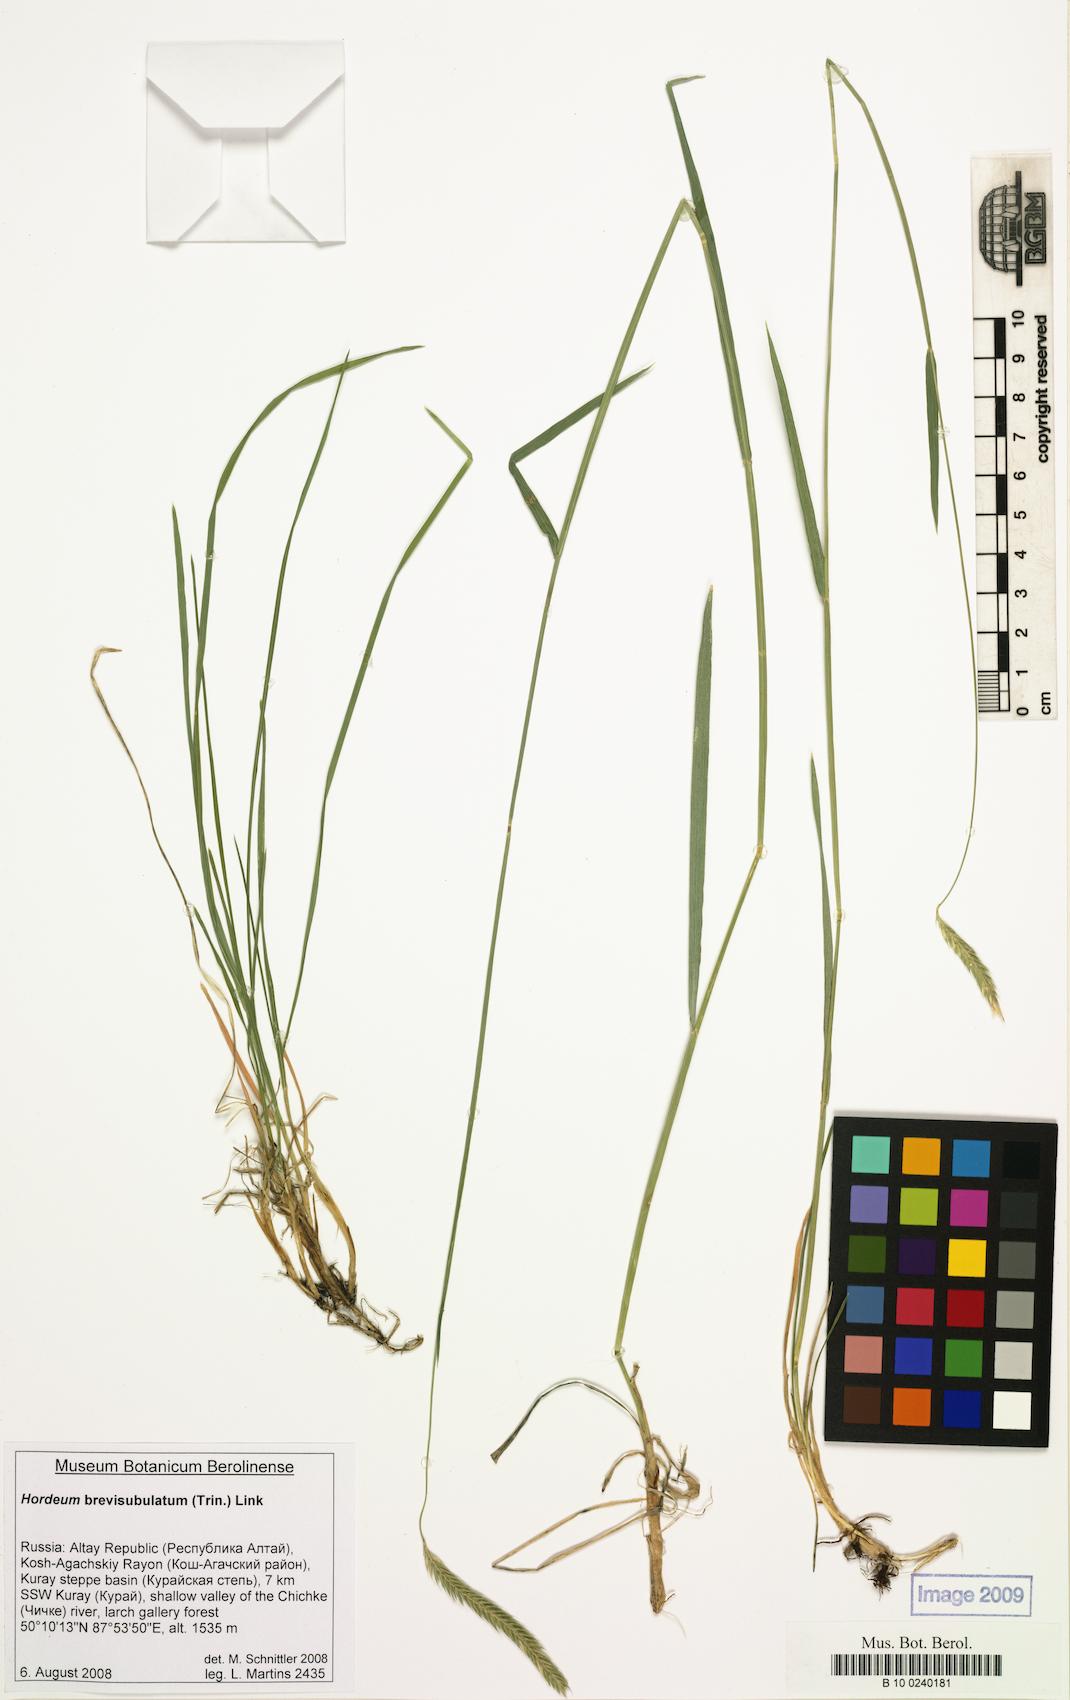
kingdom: Plantae
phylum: Tracheophyta
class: Liliopsida
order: Poales
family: Poaceae
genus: Hordeum
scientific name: Hordeum brevisubulatum
